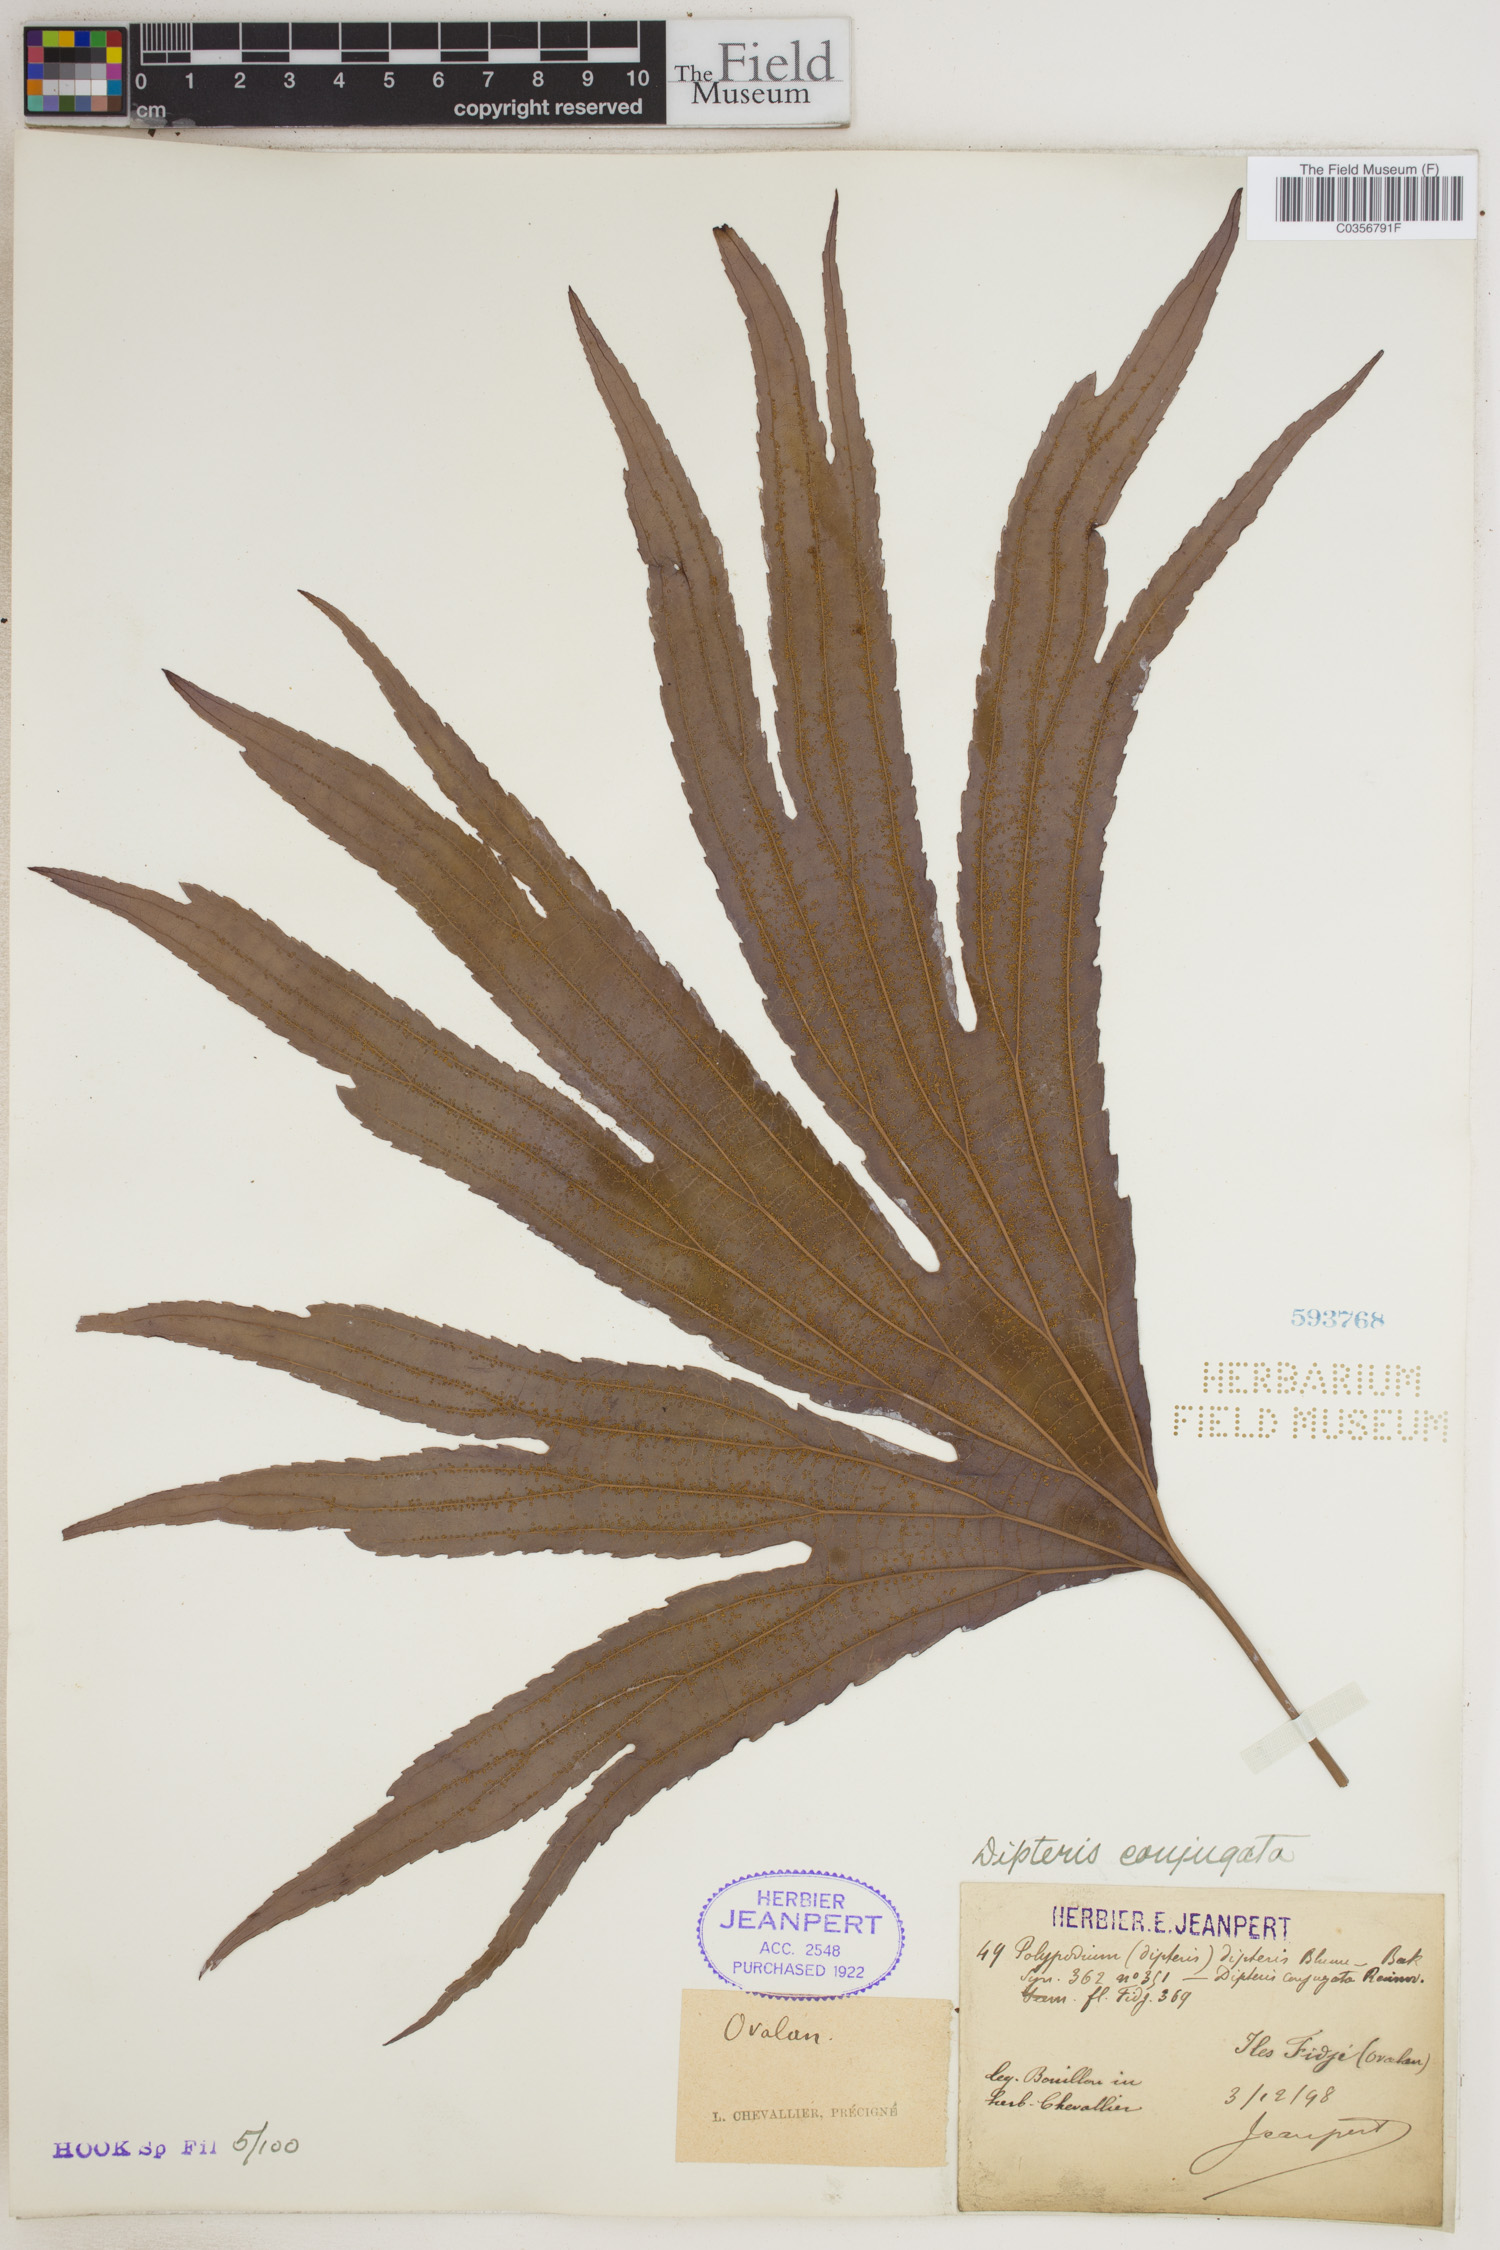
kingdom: Plantae
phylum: Tracheophyta
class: Polypodiopsida
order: Gleicheniales
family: Dipteridaceae
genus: Dipteris
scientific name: Dipteris conjugata
